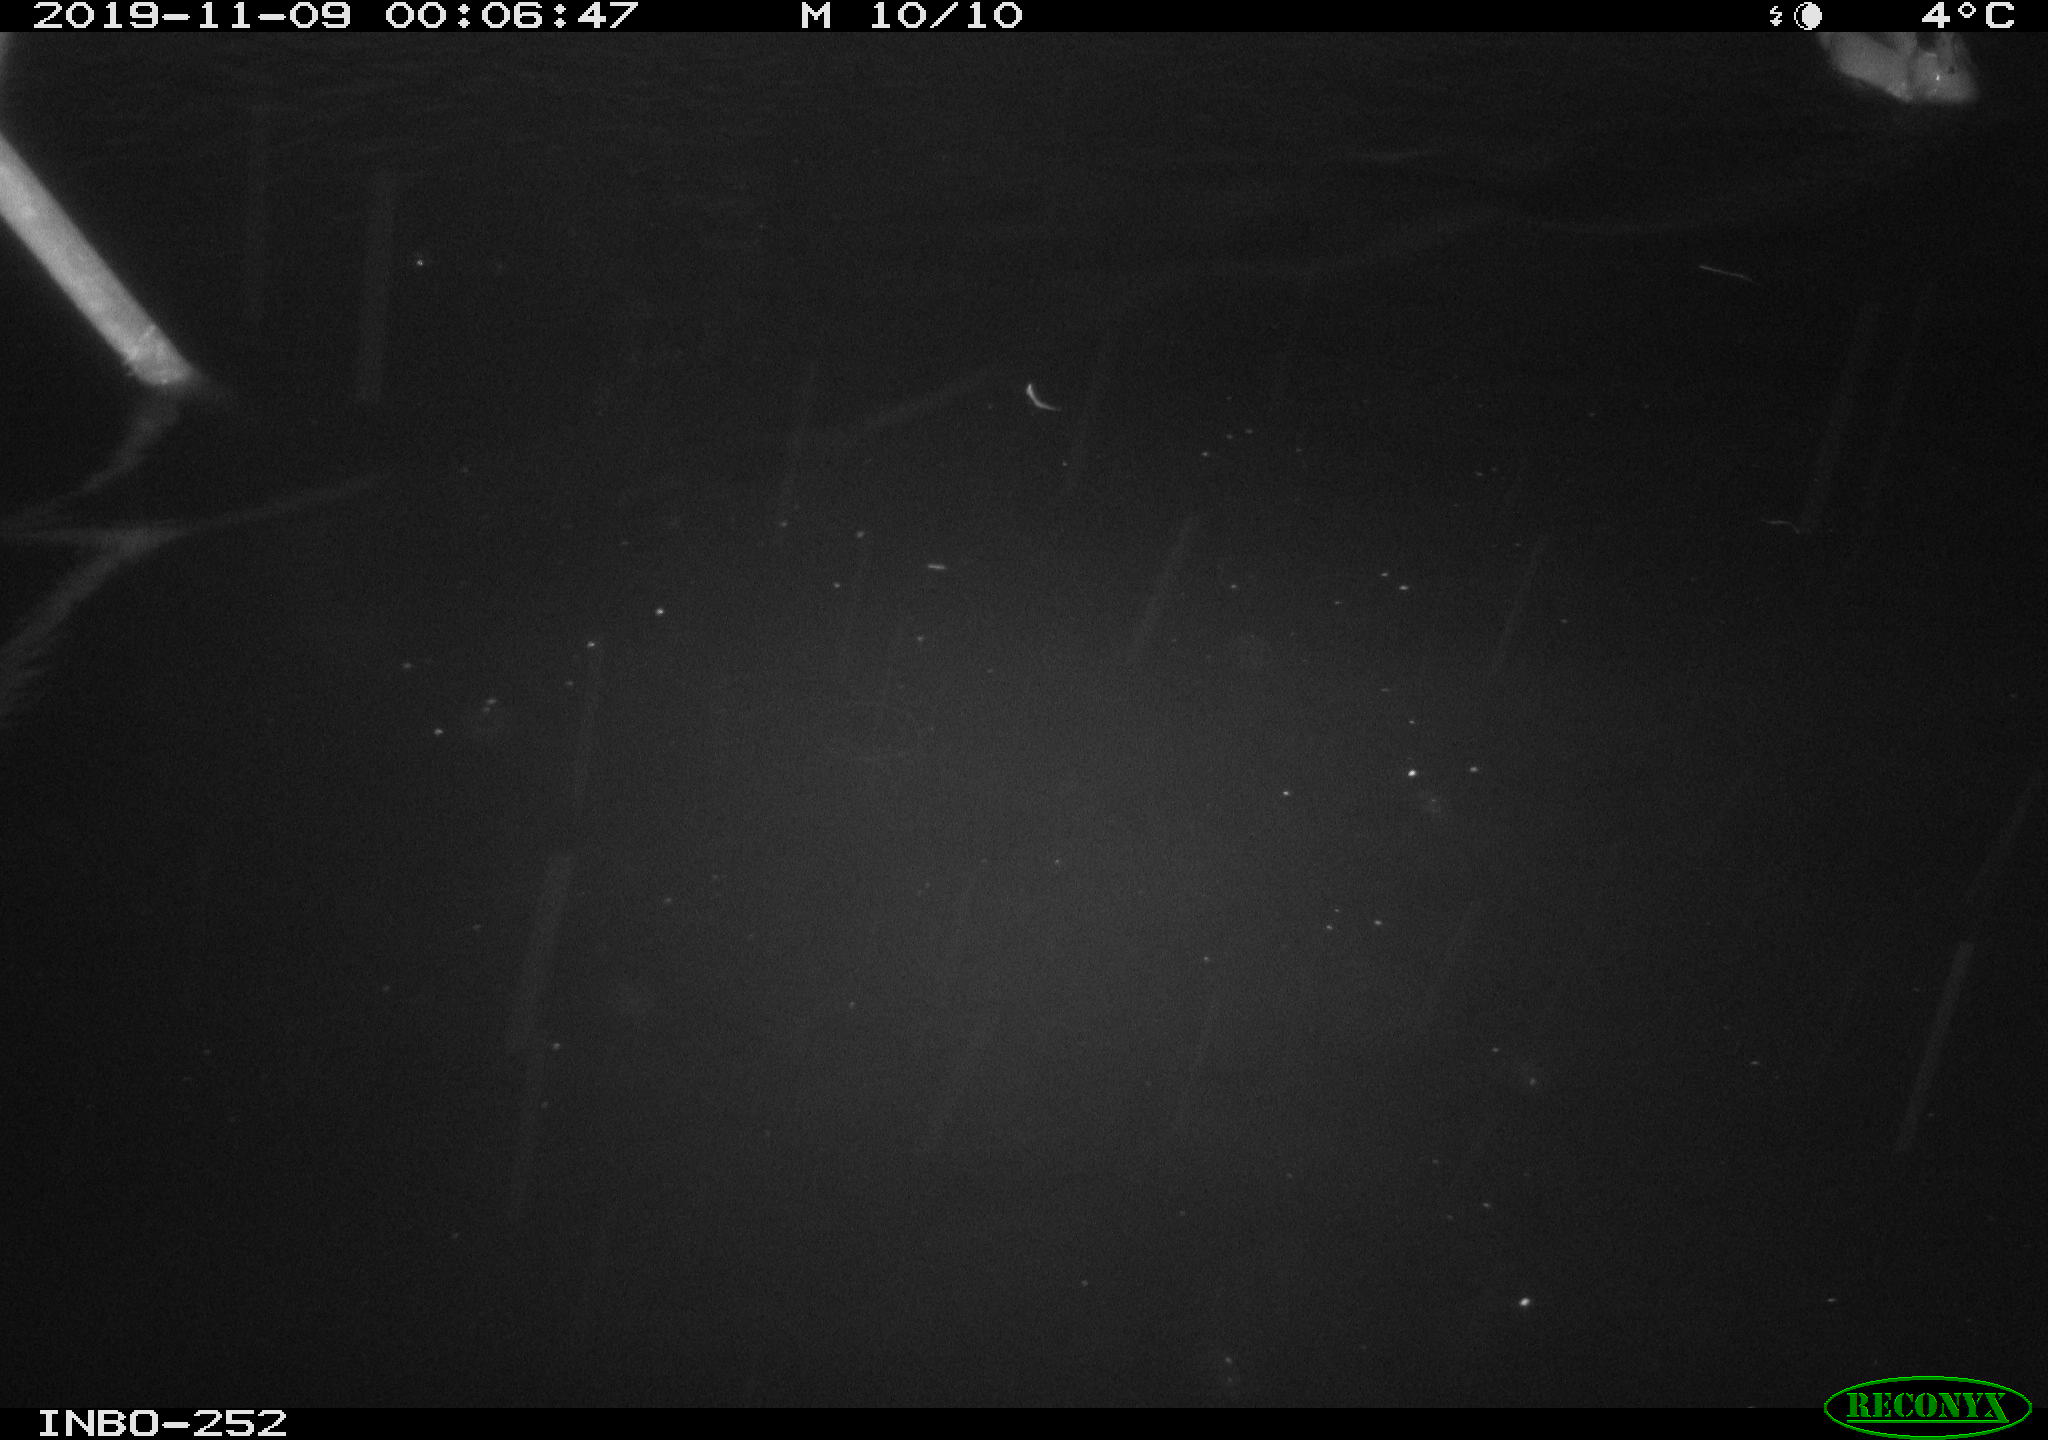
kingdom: Animalia
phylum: Chordata
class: Aves
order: Anseriformes
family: Anatidae
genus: Anas
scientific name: Anas platyrhynchos
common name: Mallard
